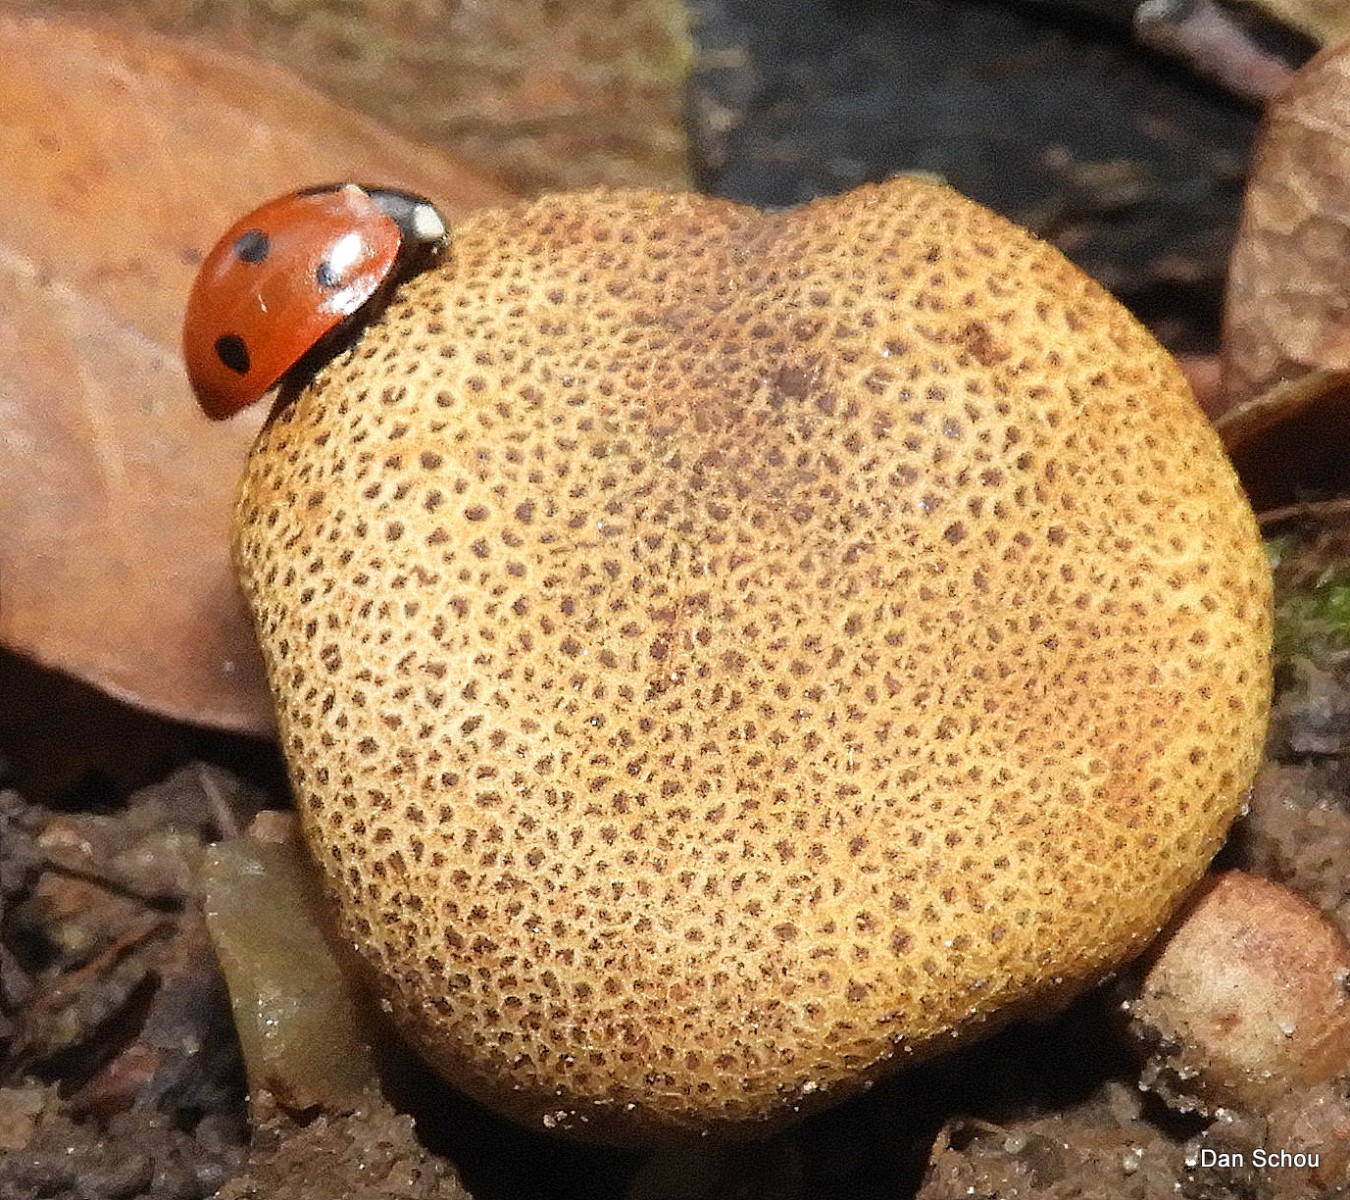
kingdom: Fungi
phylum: Basidiomycota
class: Agaricomycetes
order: Boletales
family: Sclerodermataceae
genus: Scleroderma
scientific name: Scleroderma citrinum
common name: almindelig bruskbold
